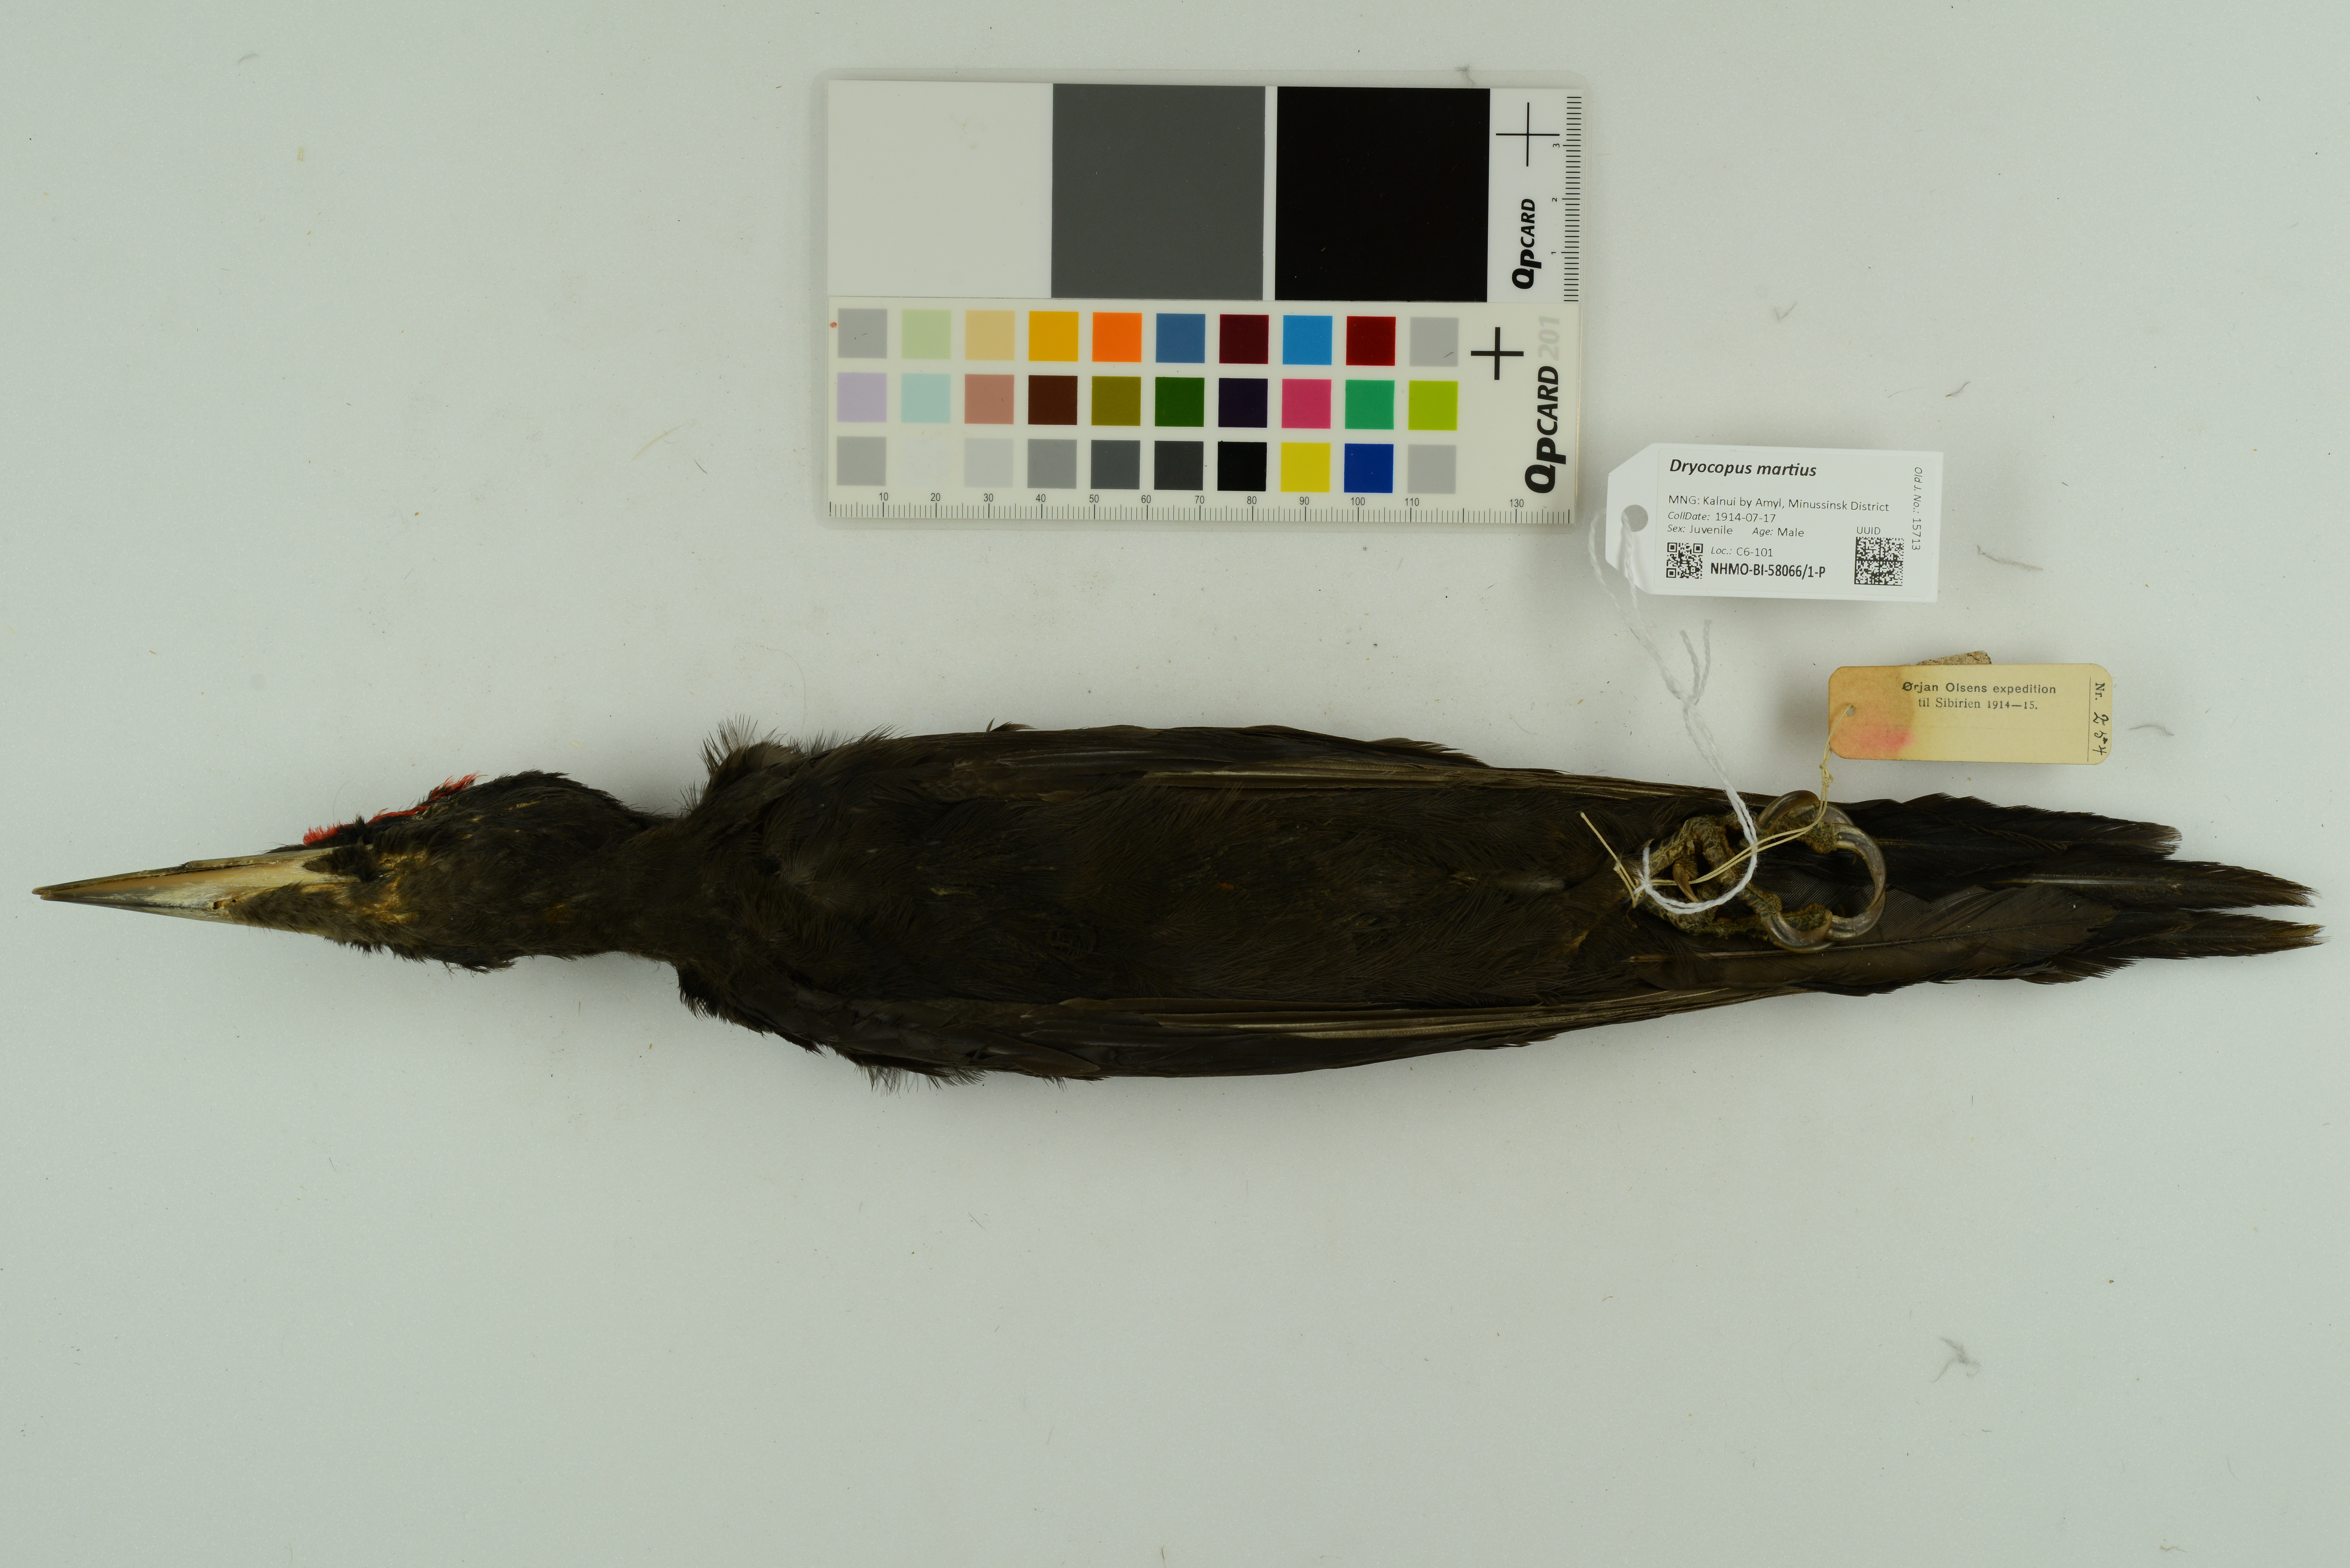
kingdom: Animalia
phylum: Chordata
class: Aves
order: Piciformes
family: Picidae
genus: Dryocopus
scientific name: Dryocopus martius
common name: Black woodpecker
